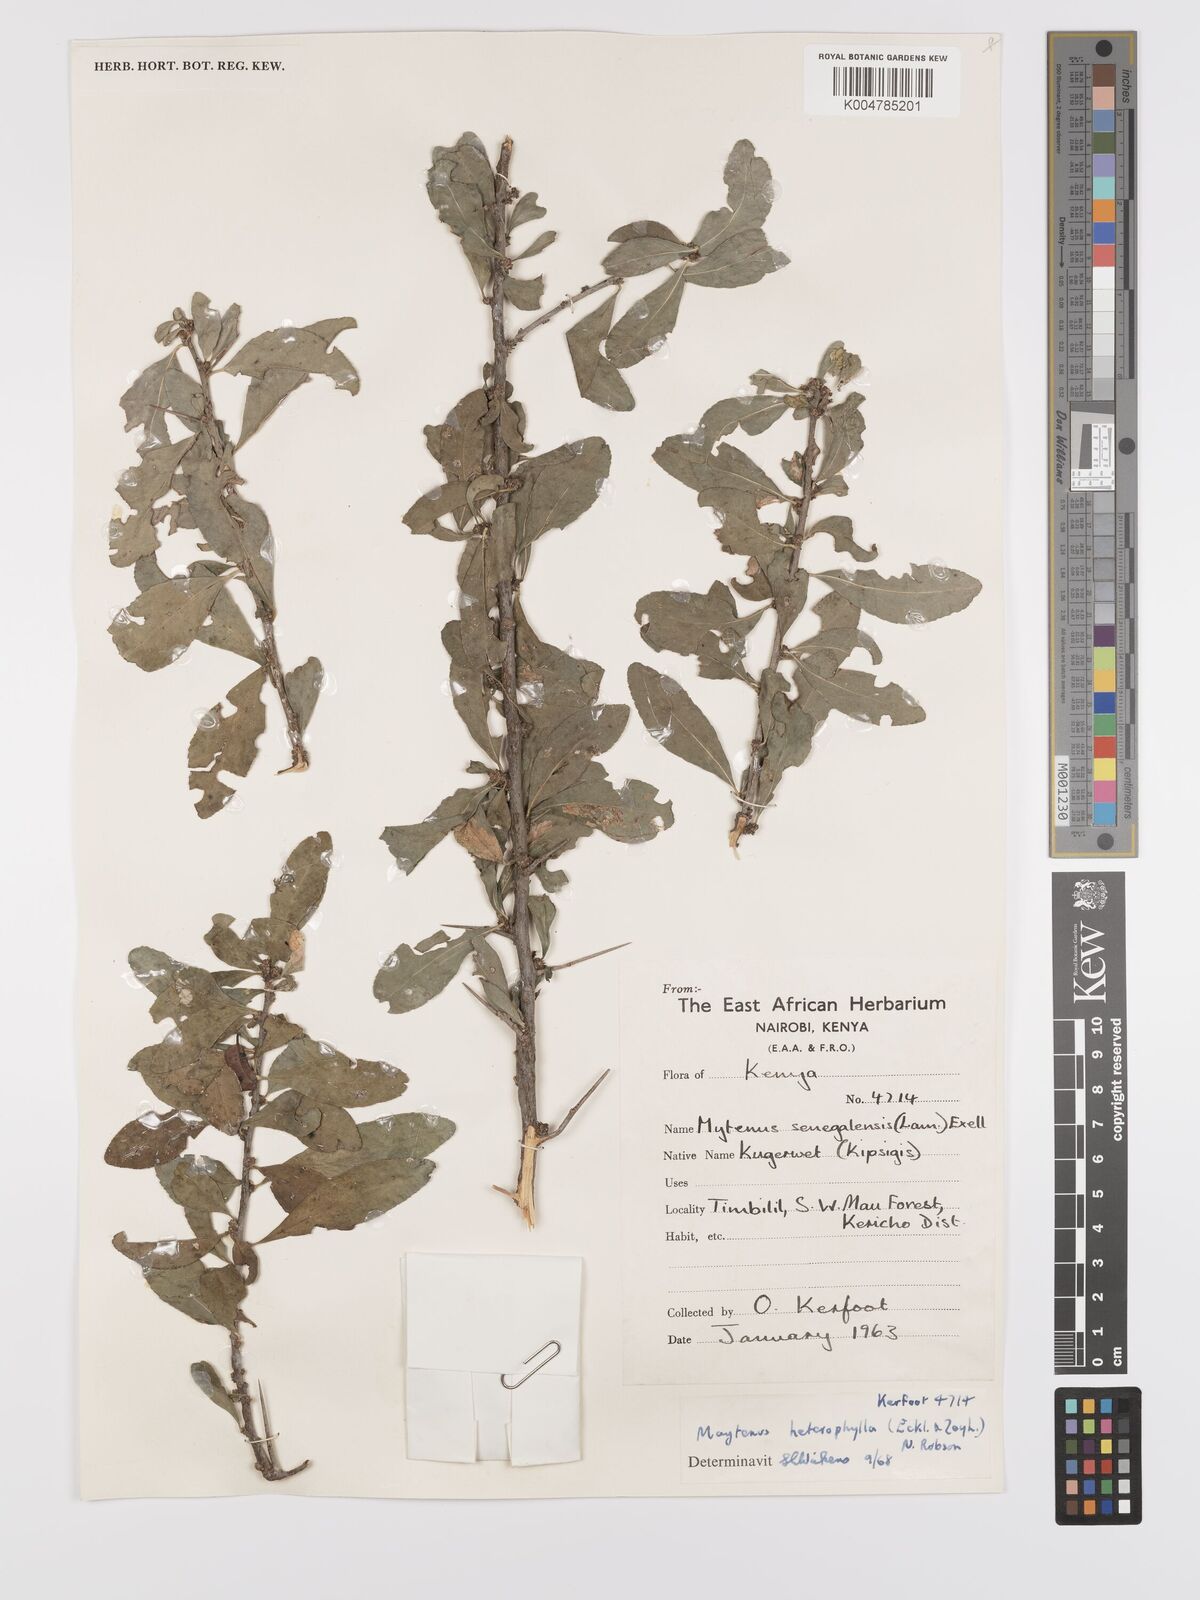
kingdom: Plantae
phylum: Tracheophyta
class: Magnoliopsida
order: Celastrales
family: Celastraceae
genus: Gymnosporia
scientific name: Gymnosporia heterophylla
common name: Angle-stem spikethorn
